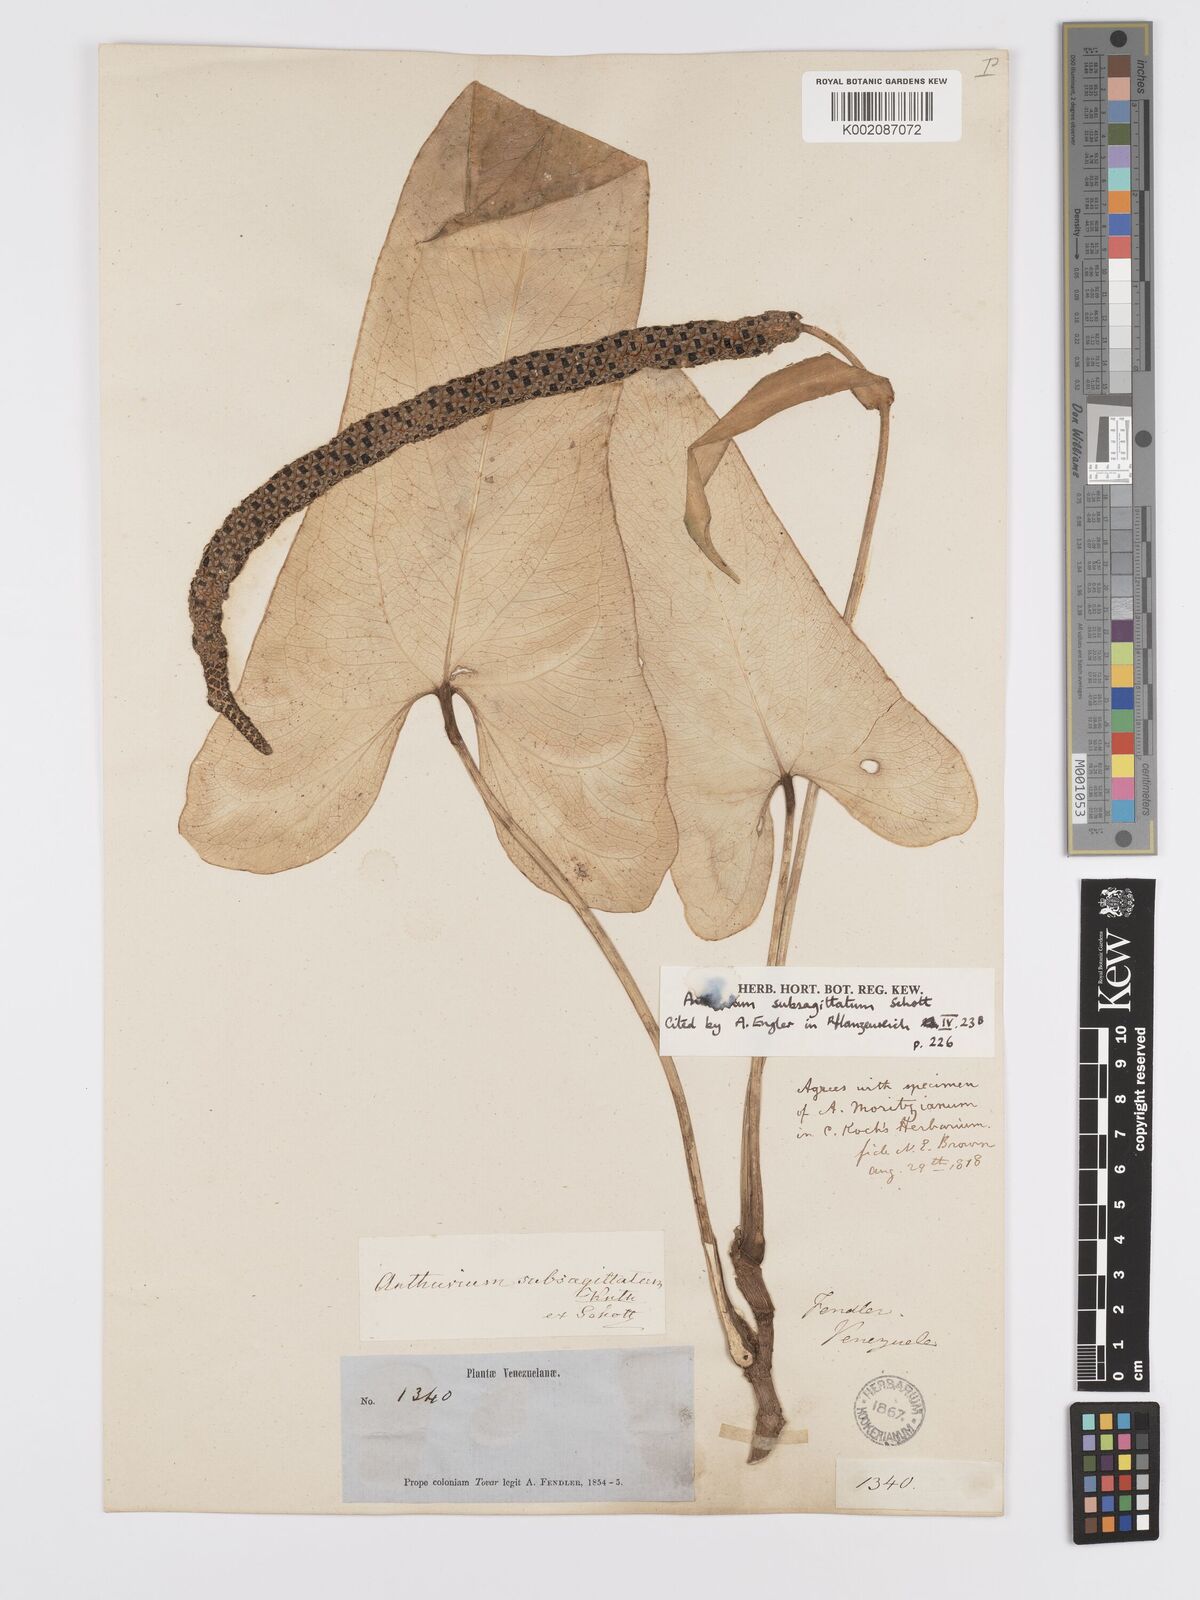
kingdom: Plantae
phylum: Tracheophyta
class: Liliopsida
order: Alismatales
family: Araceae
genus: Anthurium
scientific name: Anthurium subsagittatum
